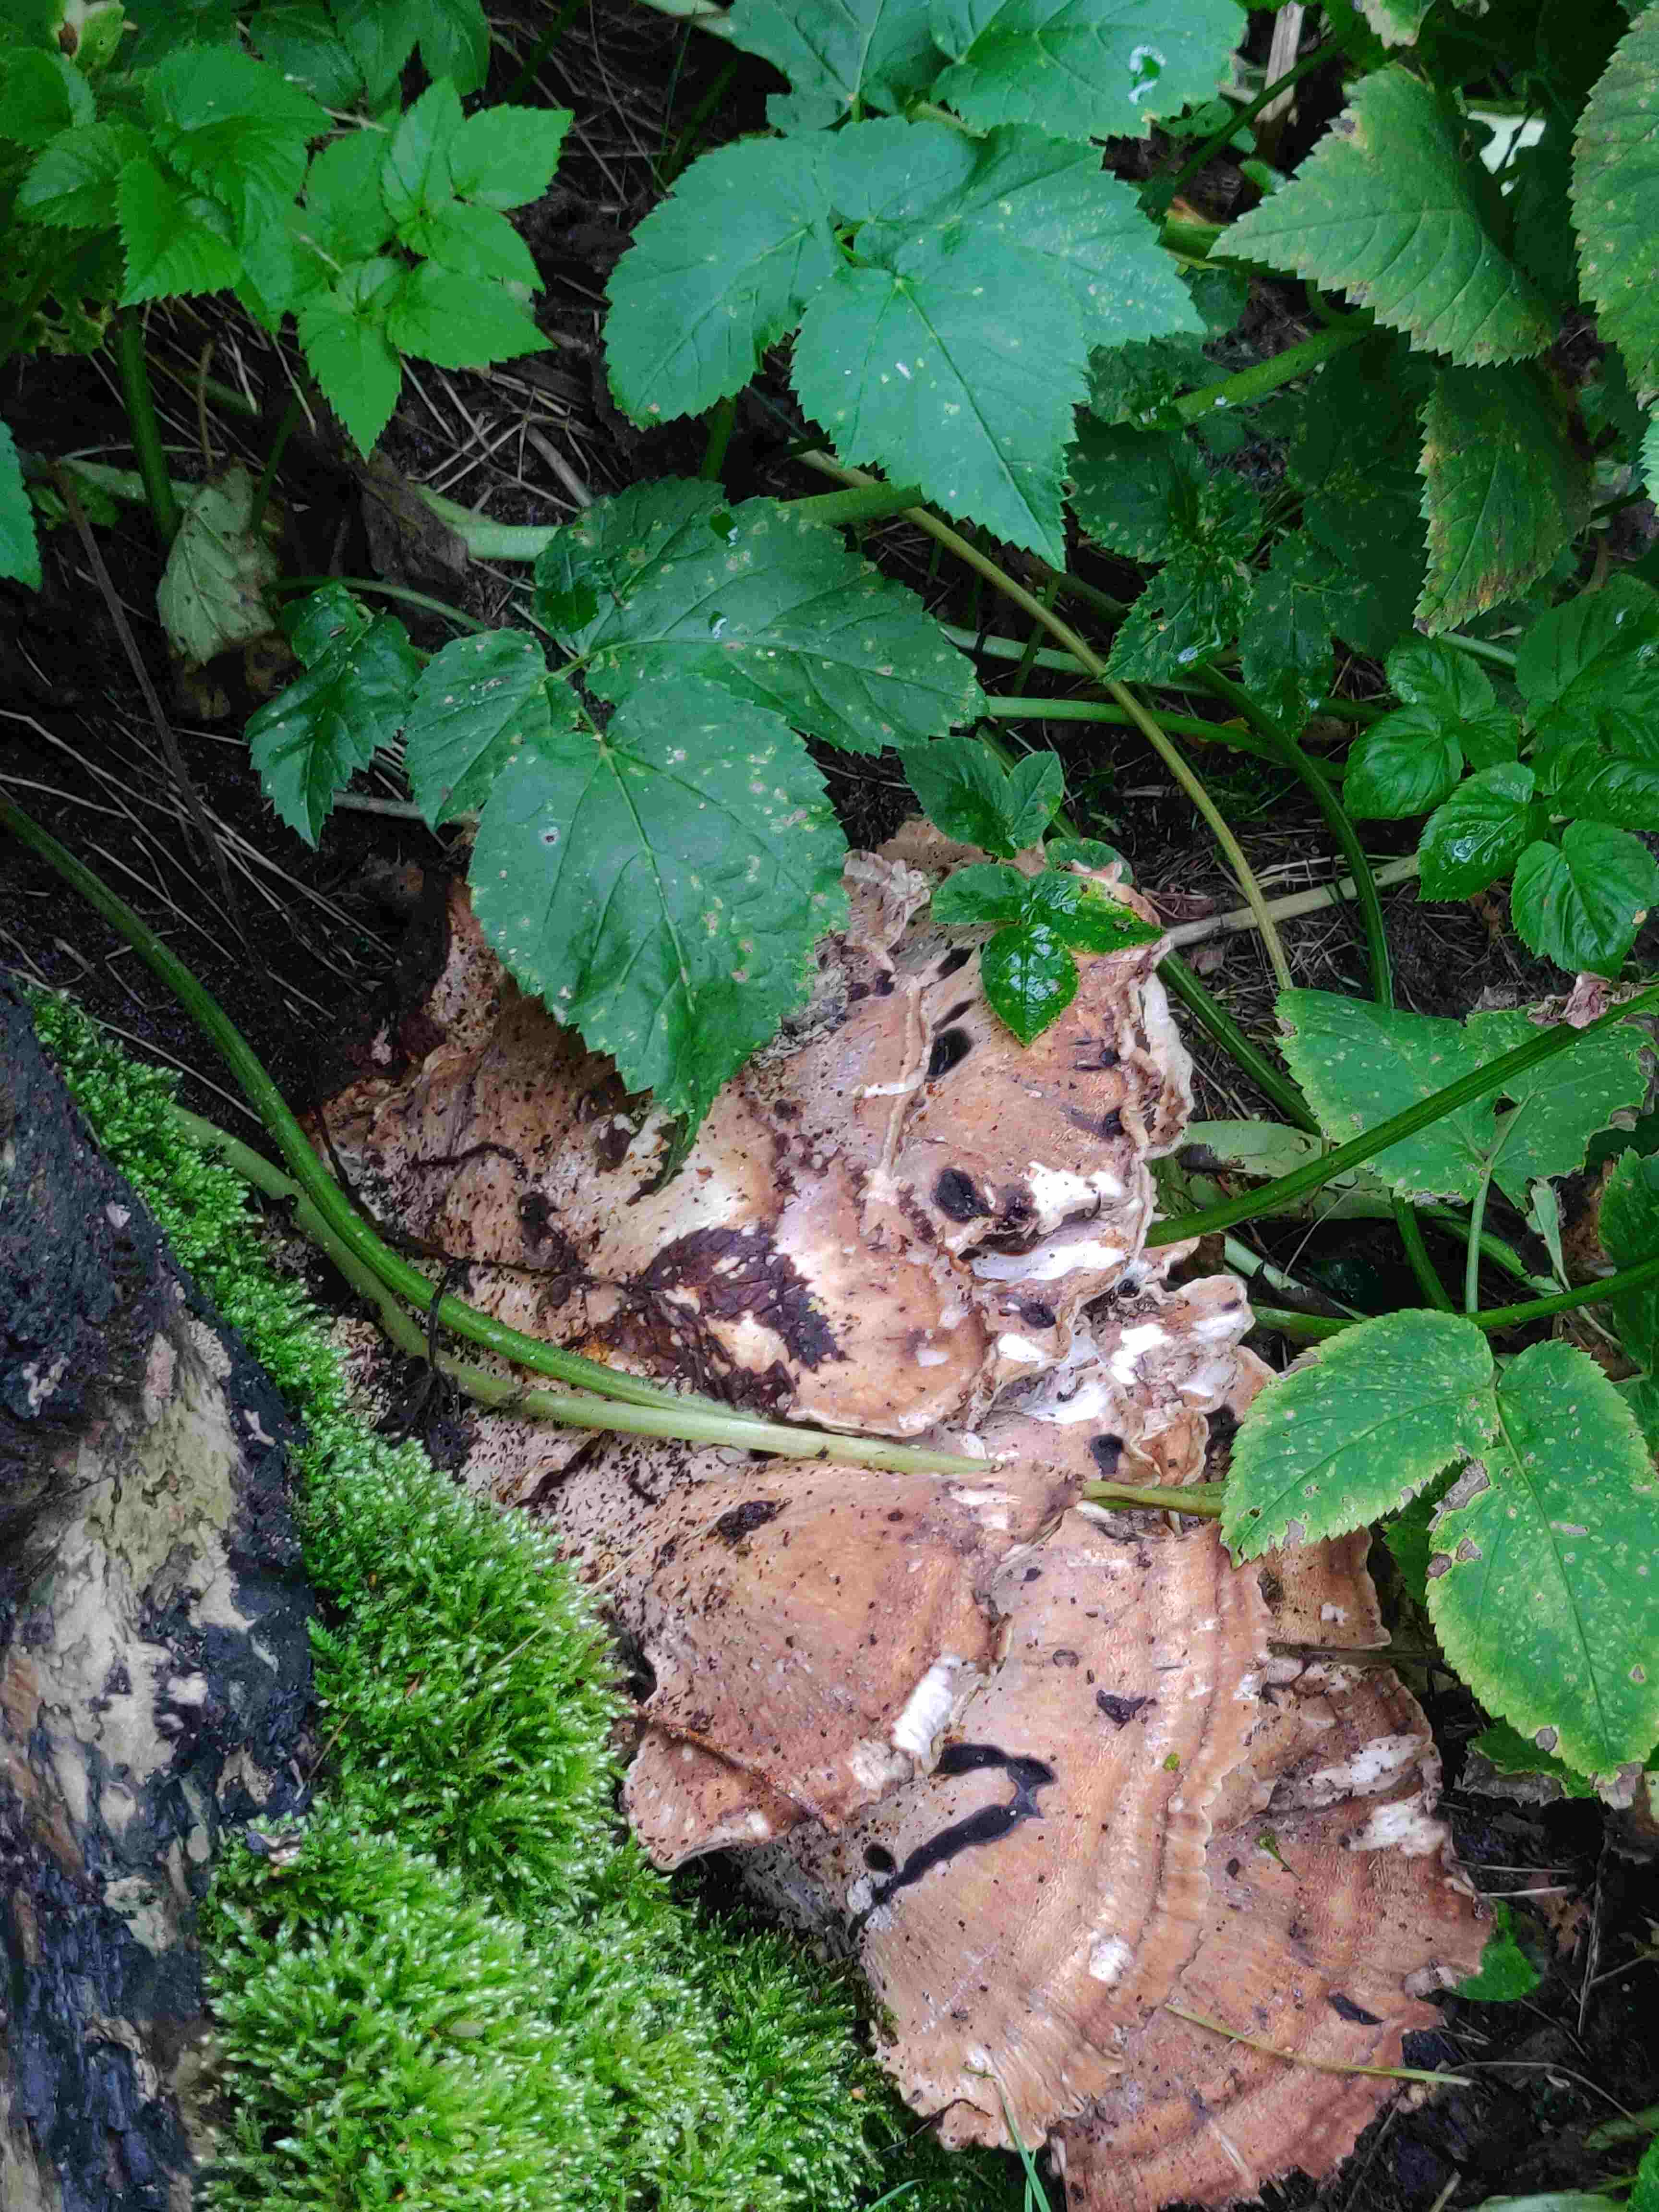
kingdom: Fungi
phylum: Basidiomycota
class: Agaricomycetes
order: Polyporales
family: Meripilaceae
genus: Meripilus
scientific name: Meripilus giganteus
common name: kæmpeporesvamp
